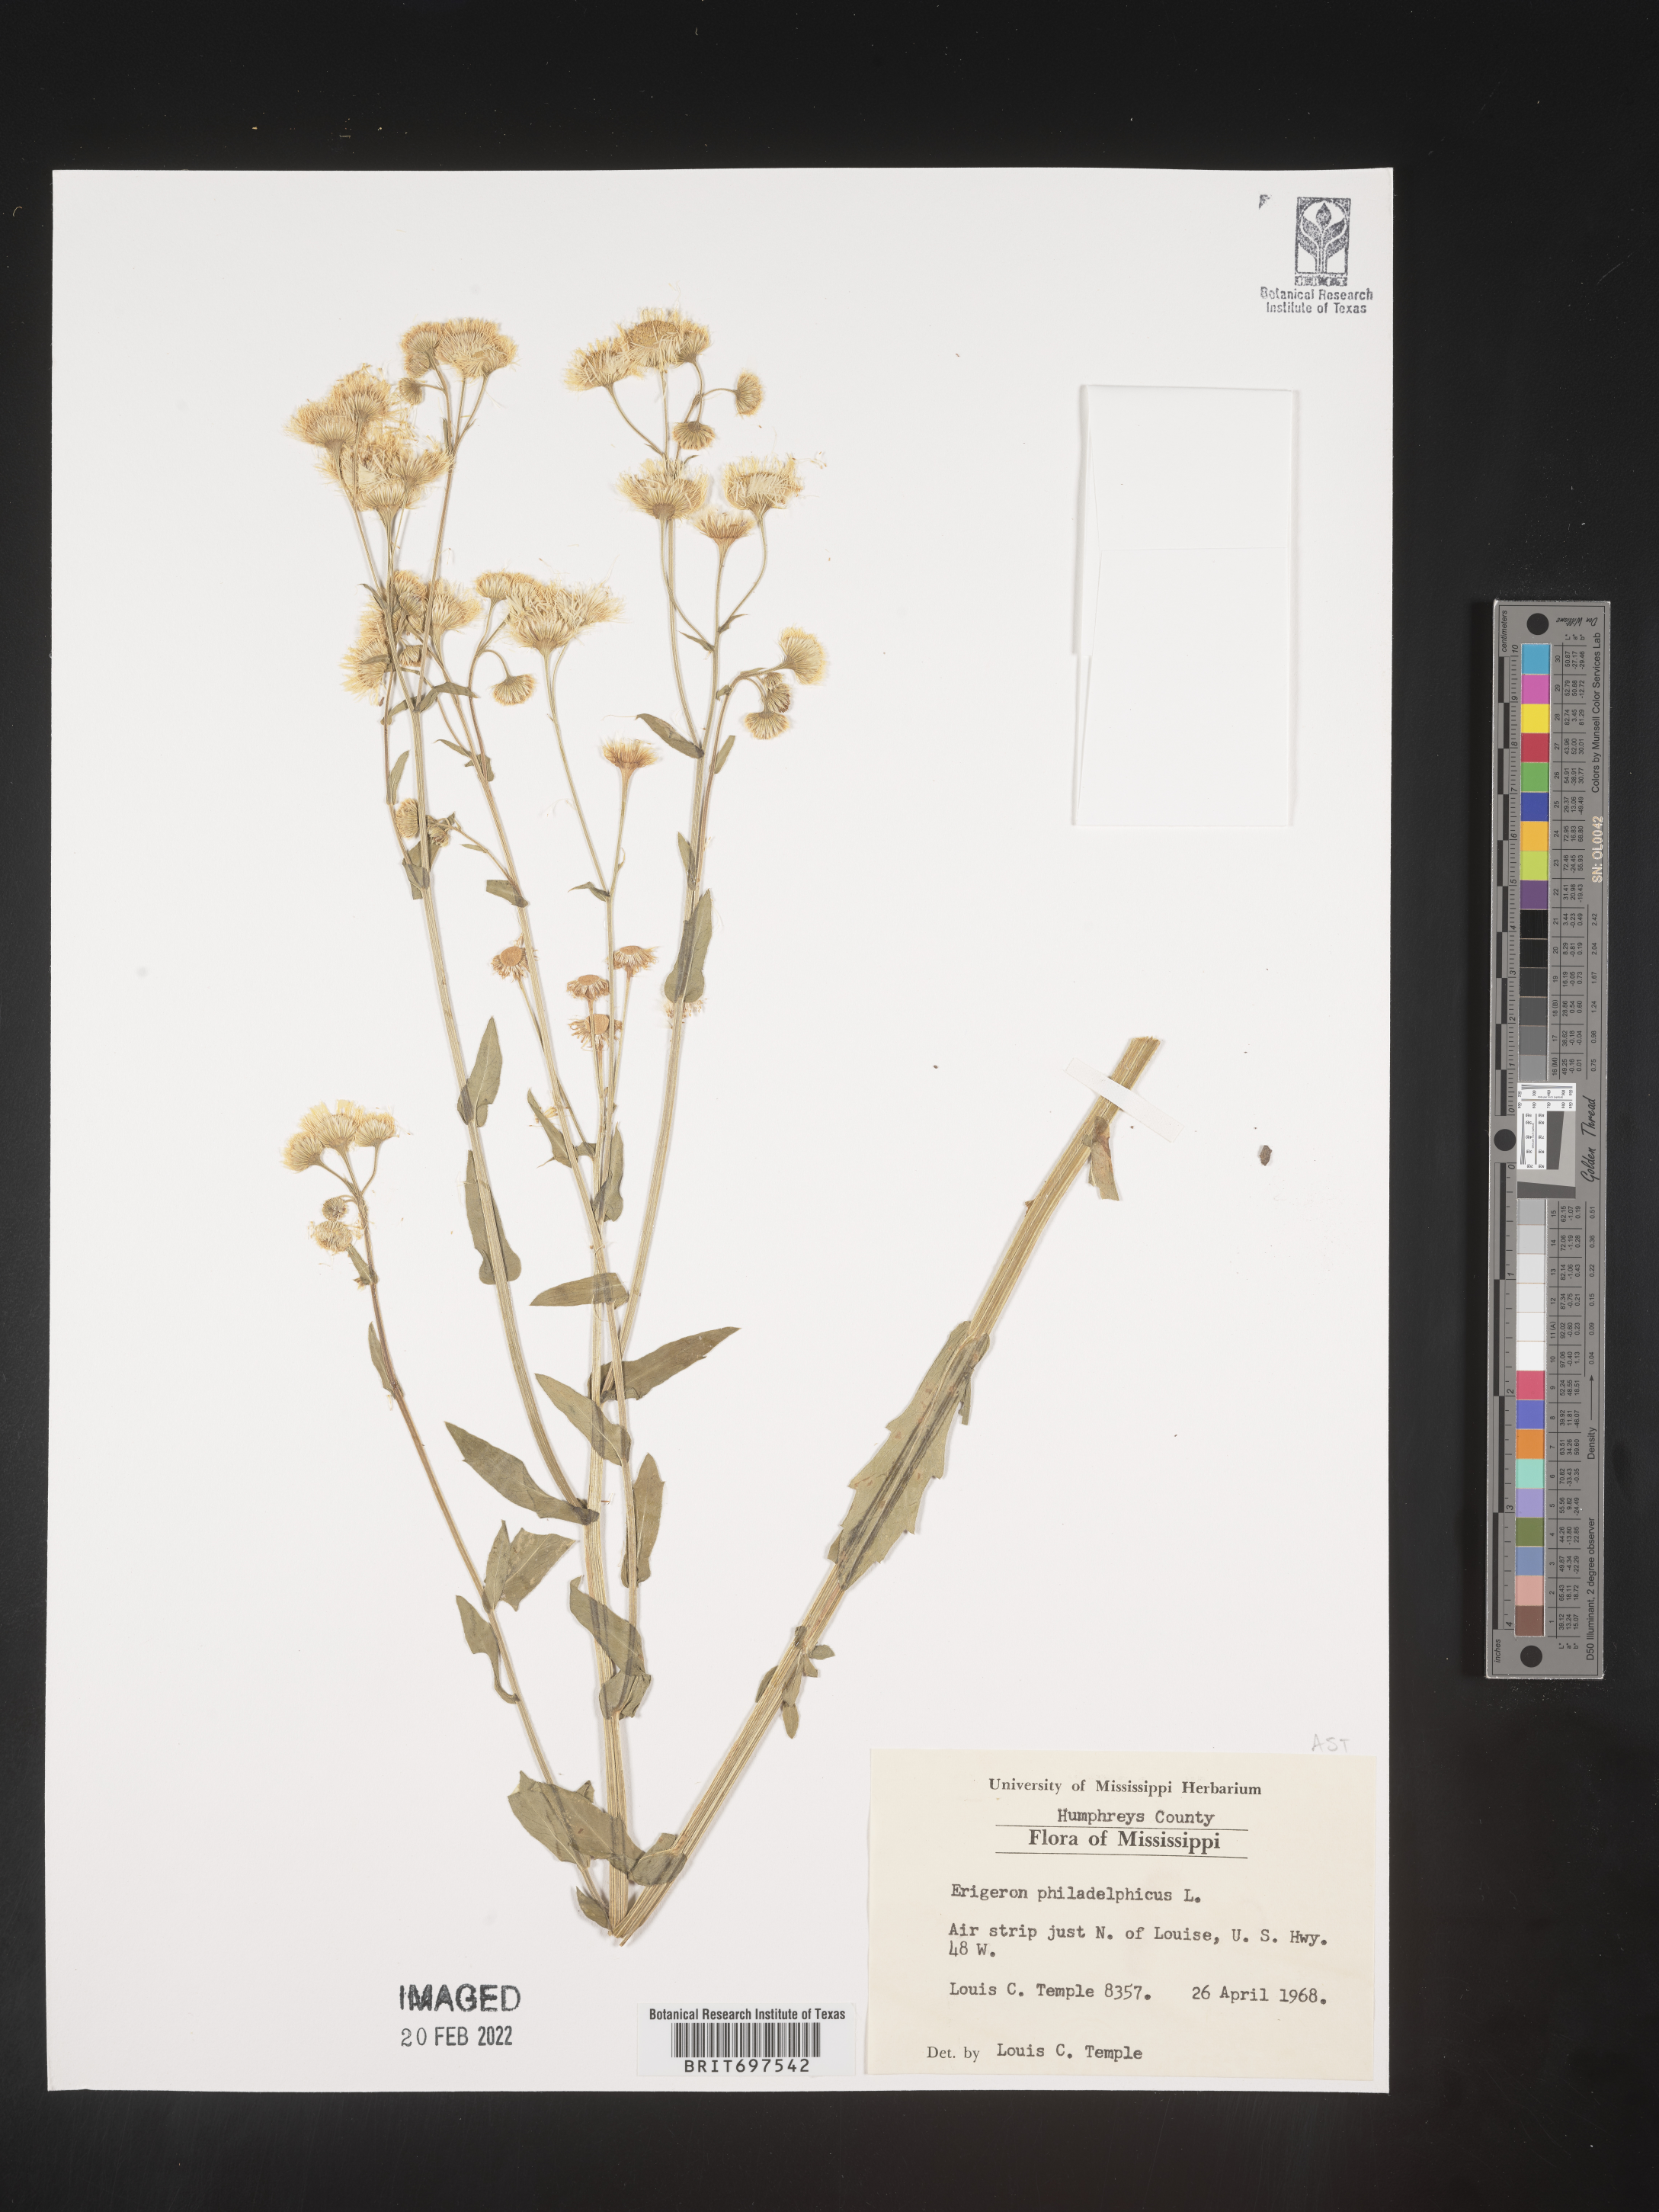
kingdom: Plantae
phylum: Tracheophyta
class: Magnoliopsida
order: Asterales
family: Asteraceae
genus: Erigeron
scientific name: Erigeron philadelphicus
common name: Robin's-plantain
